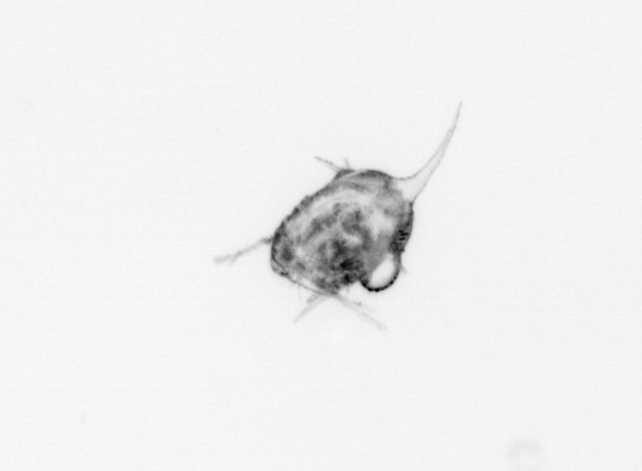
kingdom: Animalia
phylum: Arthropoda
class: Malacostraca
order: Decapoda
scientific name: Decapoda
